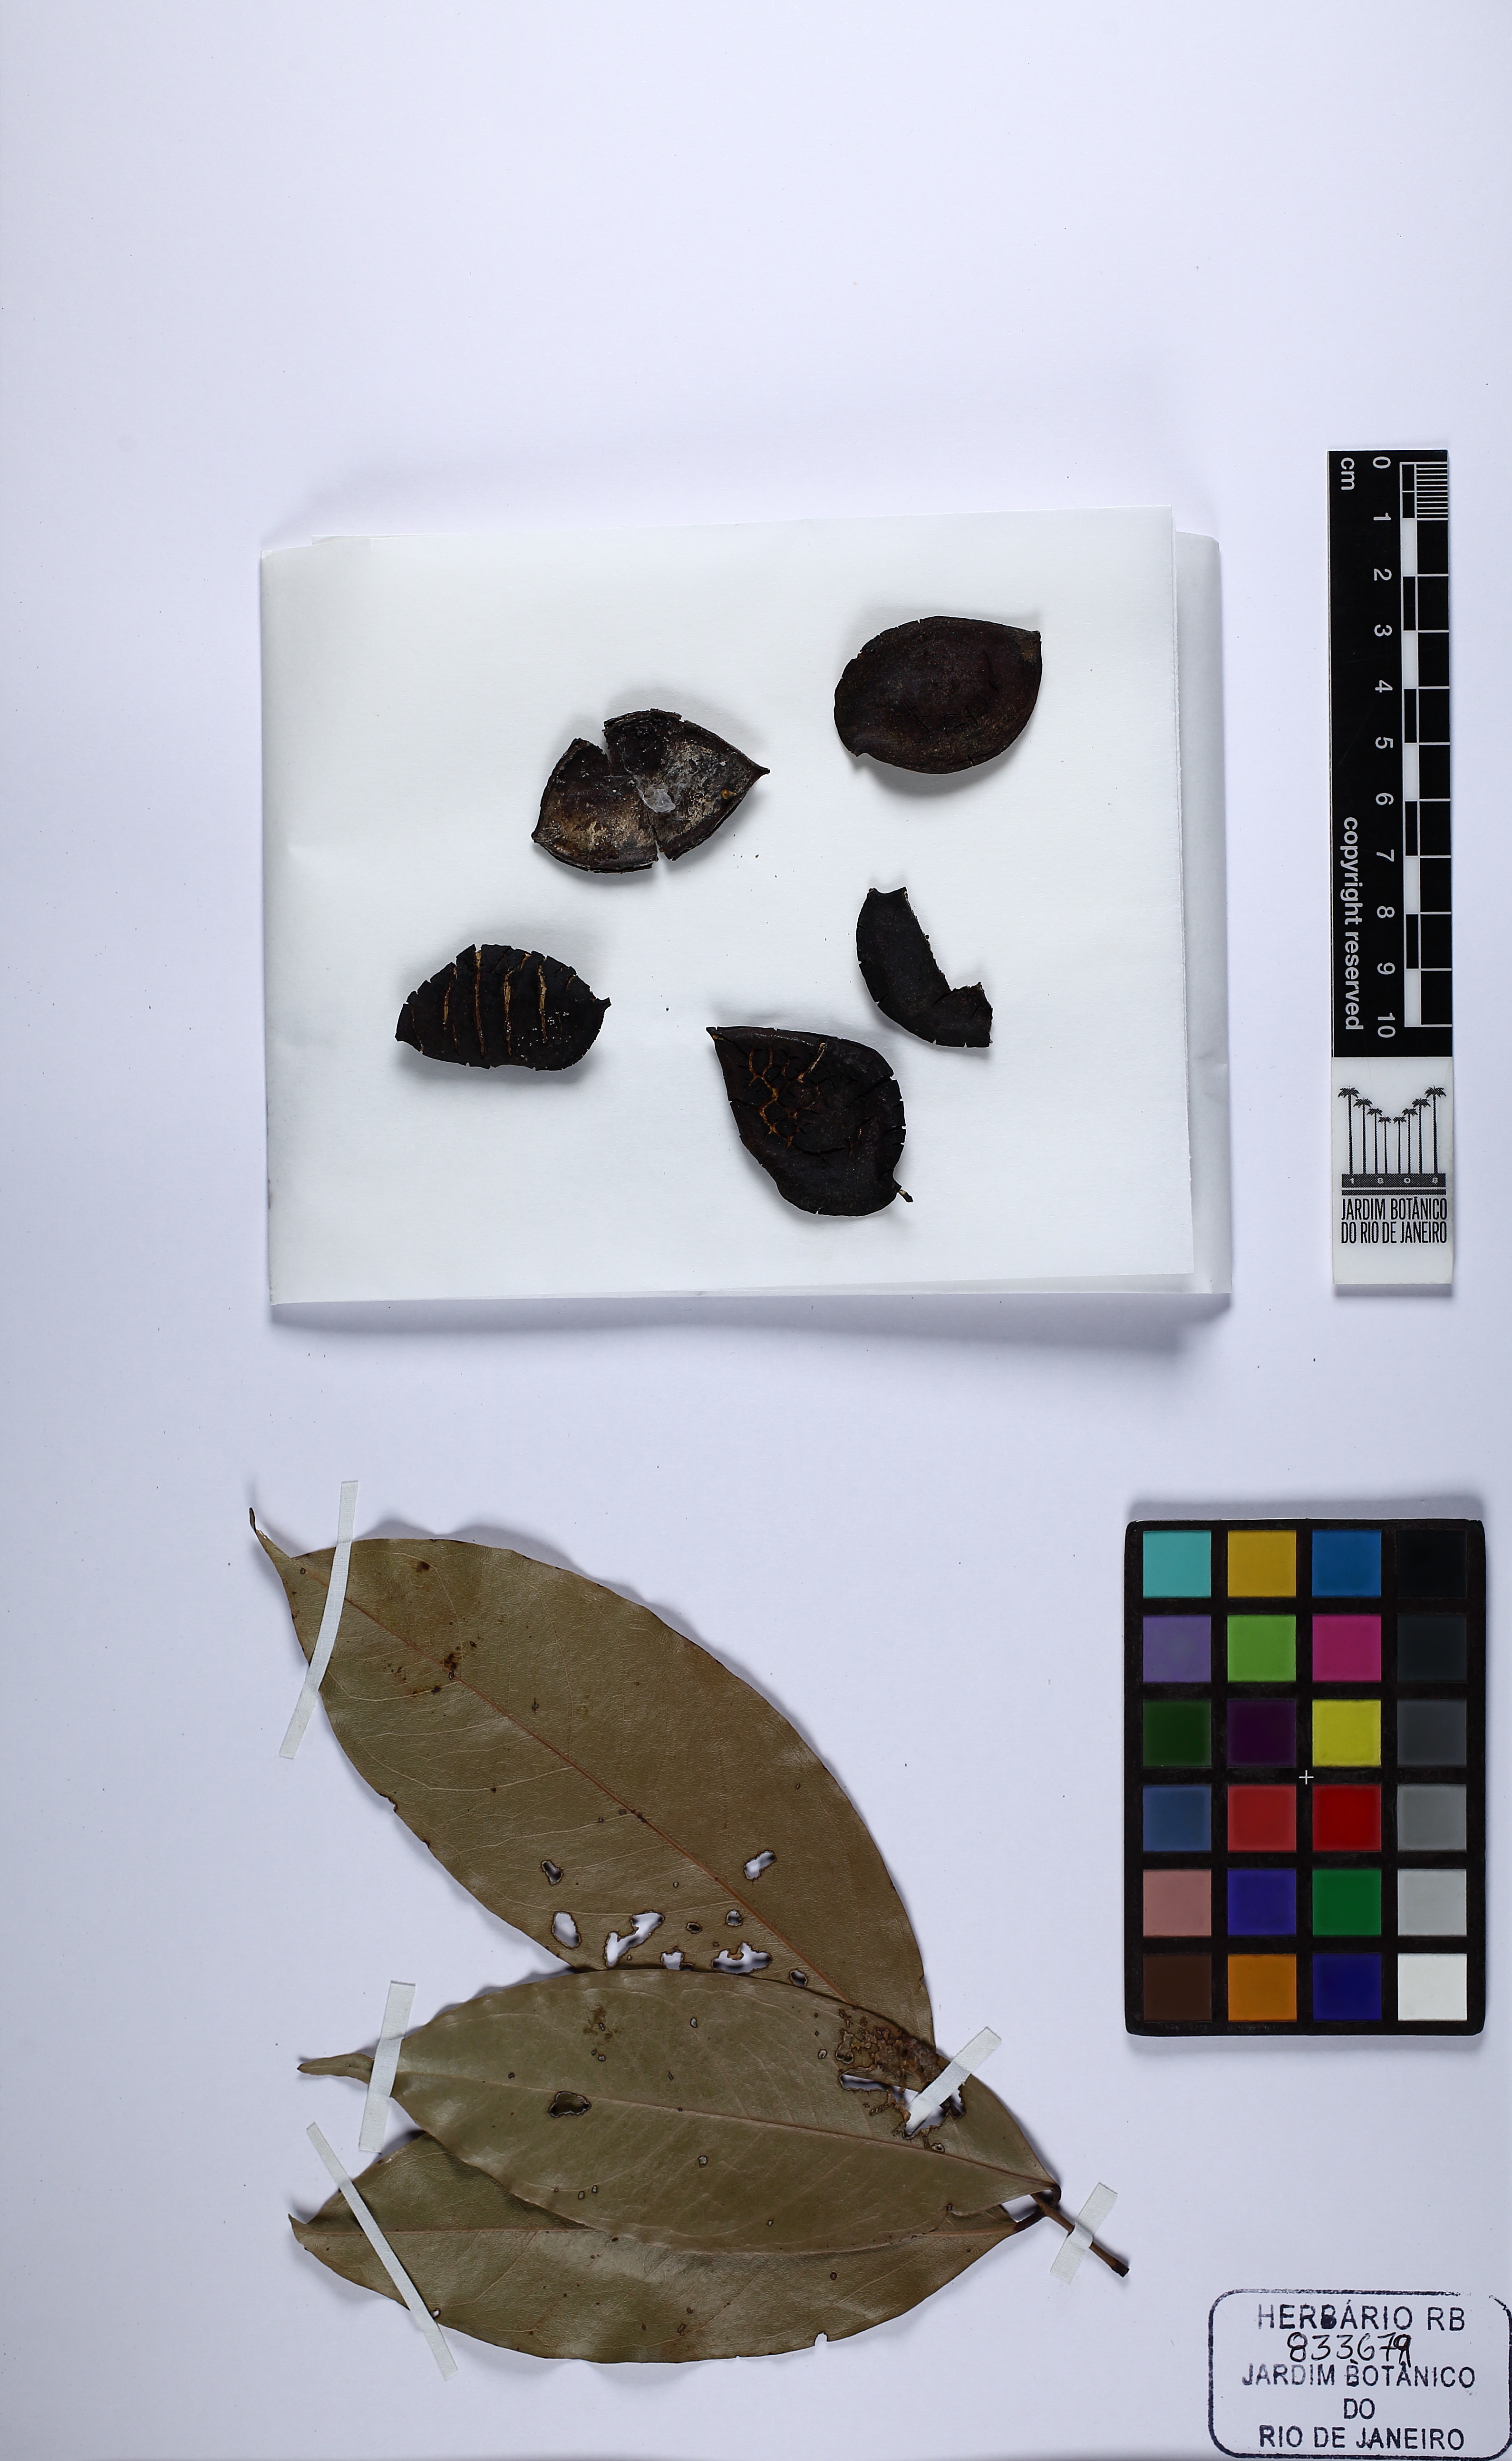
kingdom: Plantae
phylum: Tracheophyta
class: Magnoliopsida
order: Fabales
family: Fabaceae
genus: Swartzia
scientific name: Swartzia recurva
